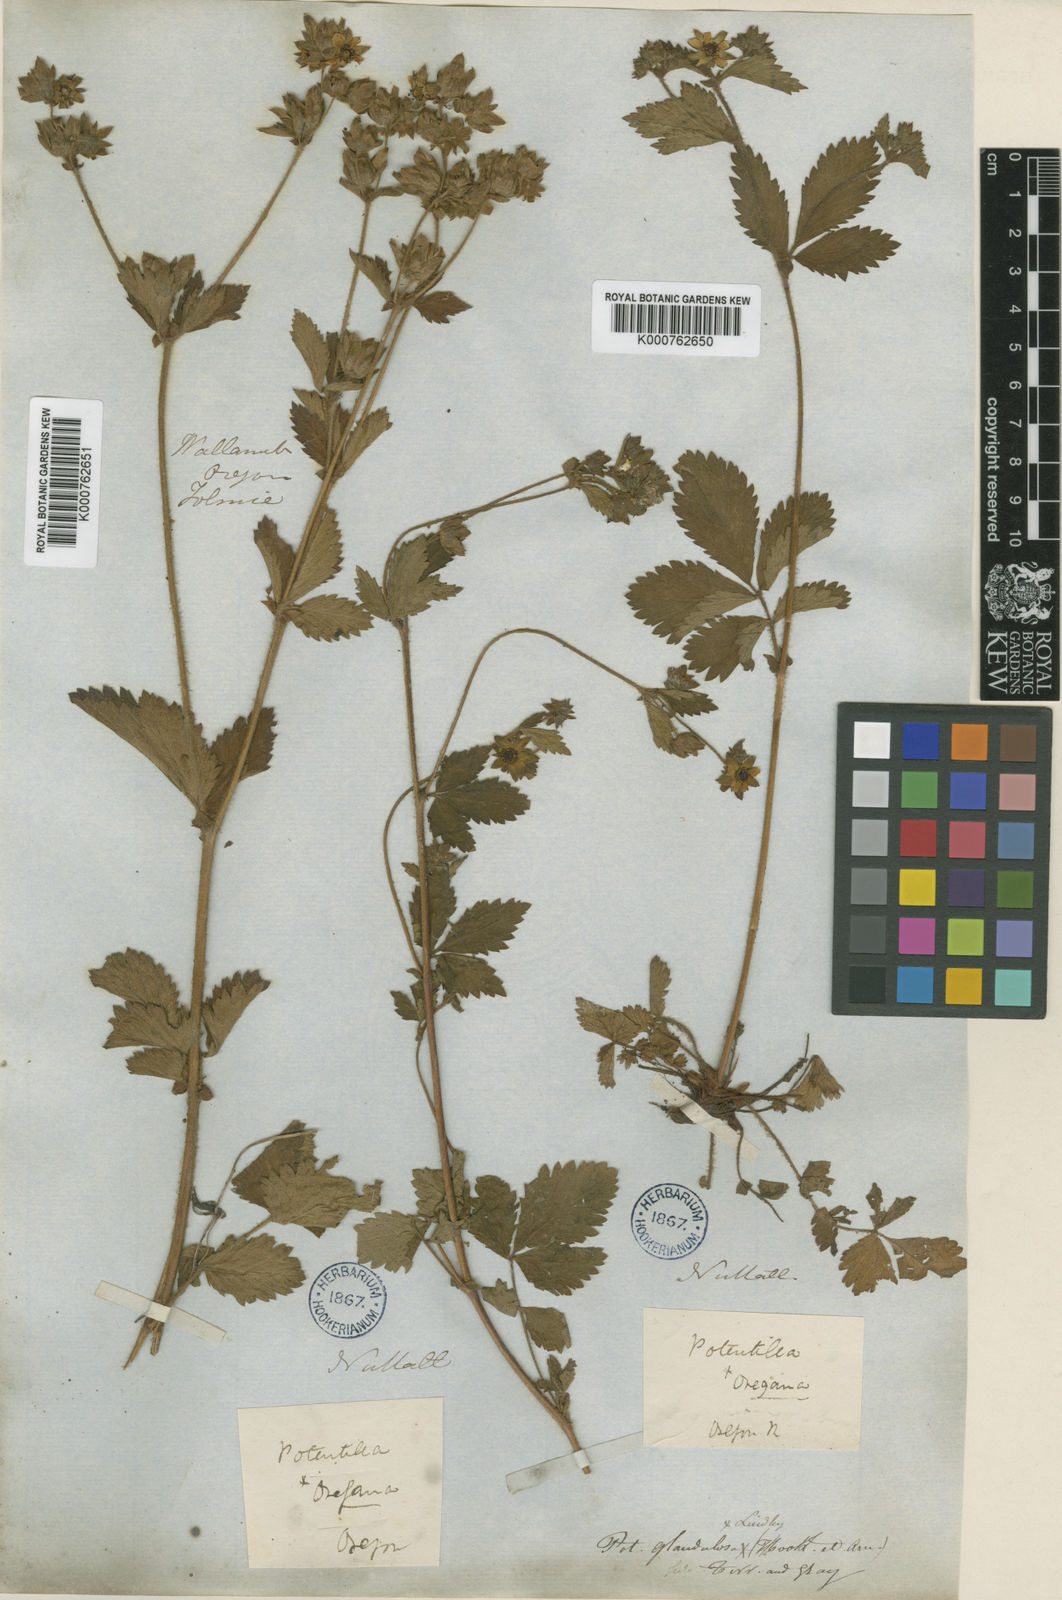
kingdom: Plantae
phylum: Tracheophyta
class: Magnoliopsida
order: Rosales
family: Rosaceae
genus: Drymocallis
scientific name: Drymocallis glandulosa
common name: Sticky cinquefoil
